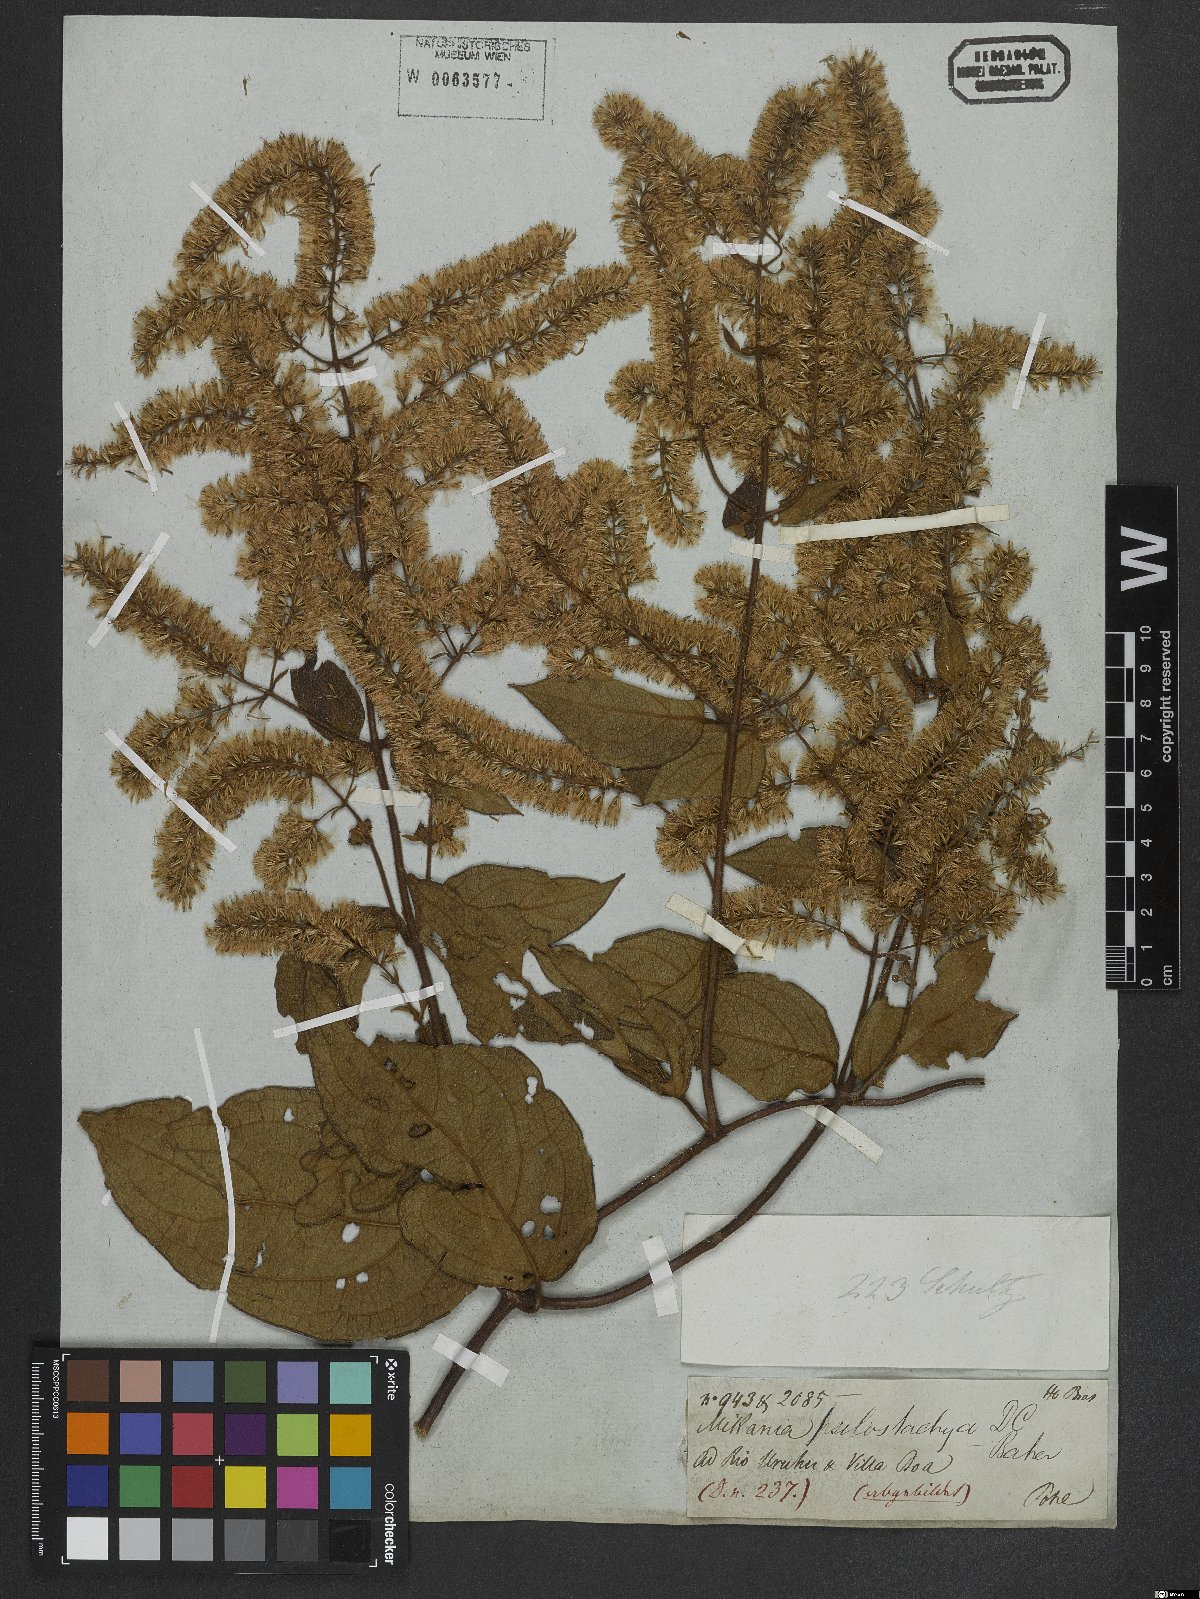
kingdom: Plantae
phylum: Tracheophyta
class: Magnoliopsida
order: Asterales
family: Asteraceae
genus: Mikania
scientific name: Mikania psilostachya
